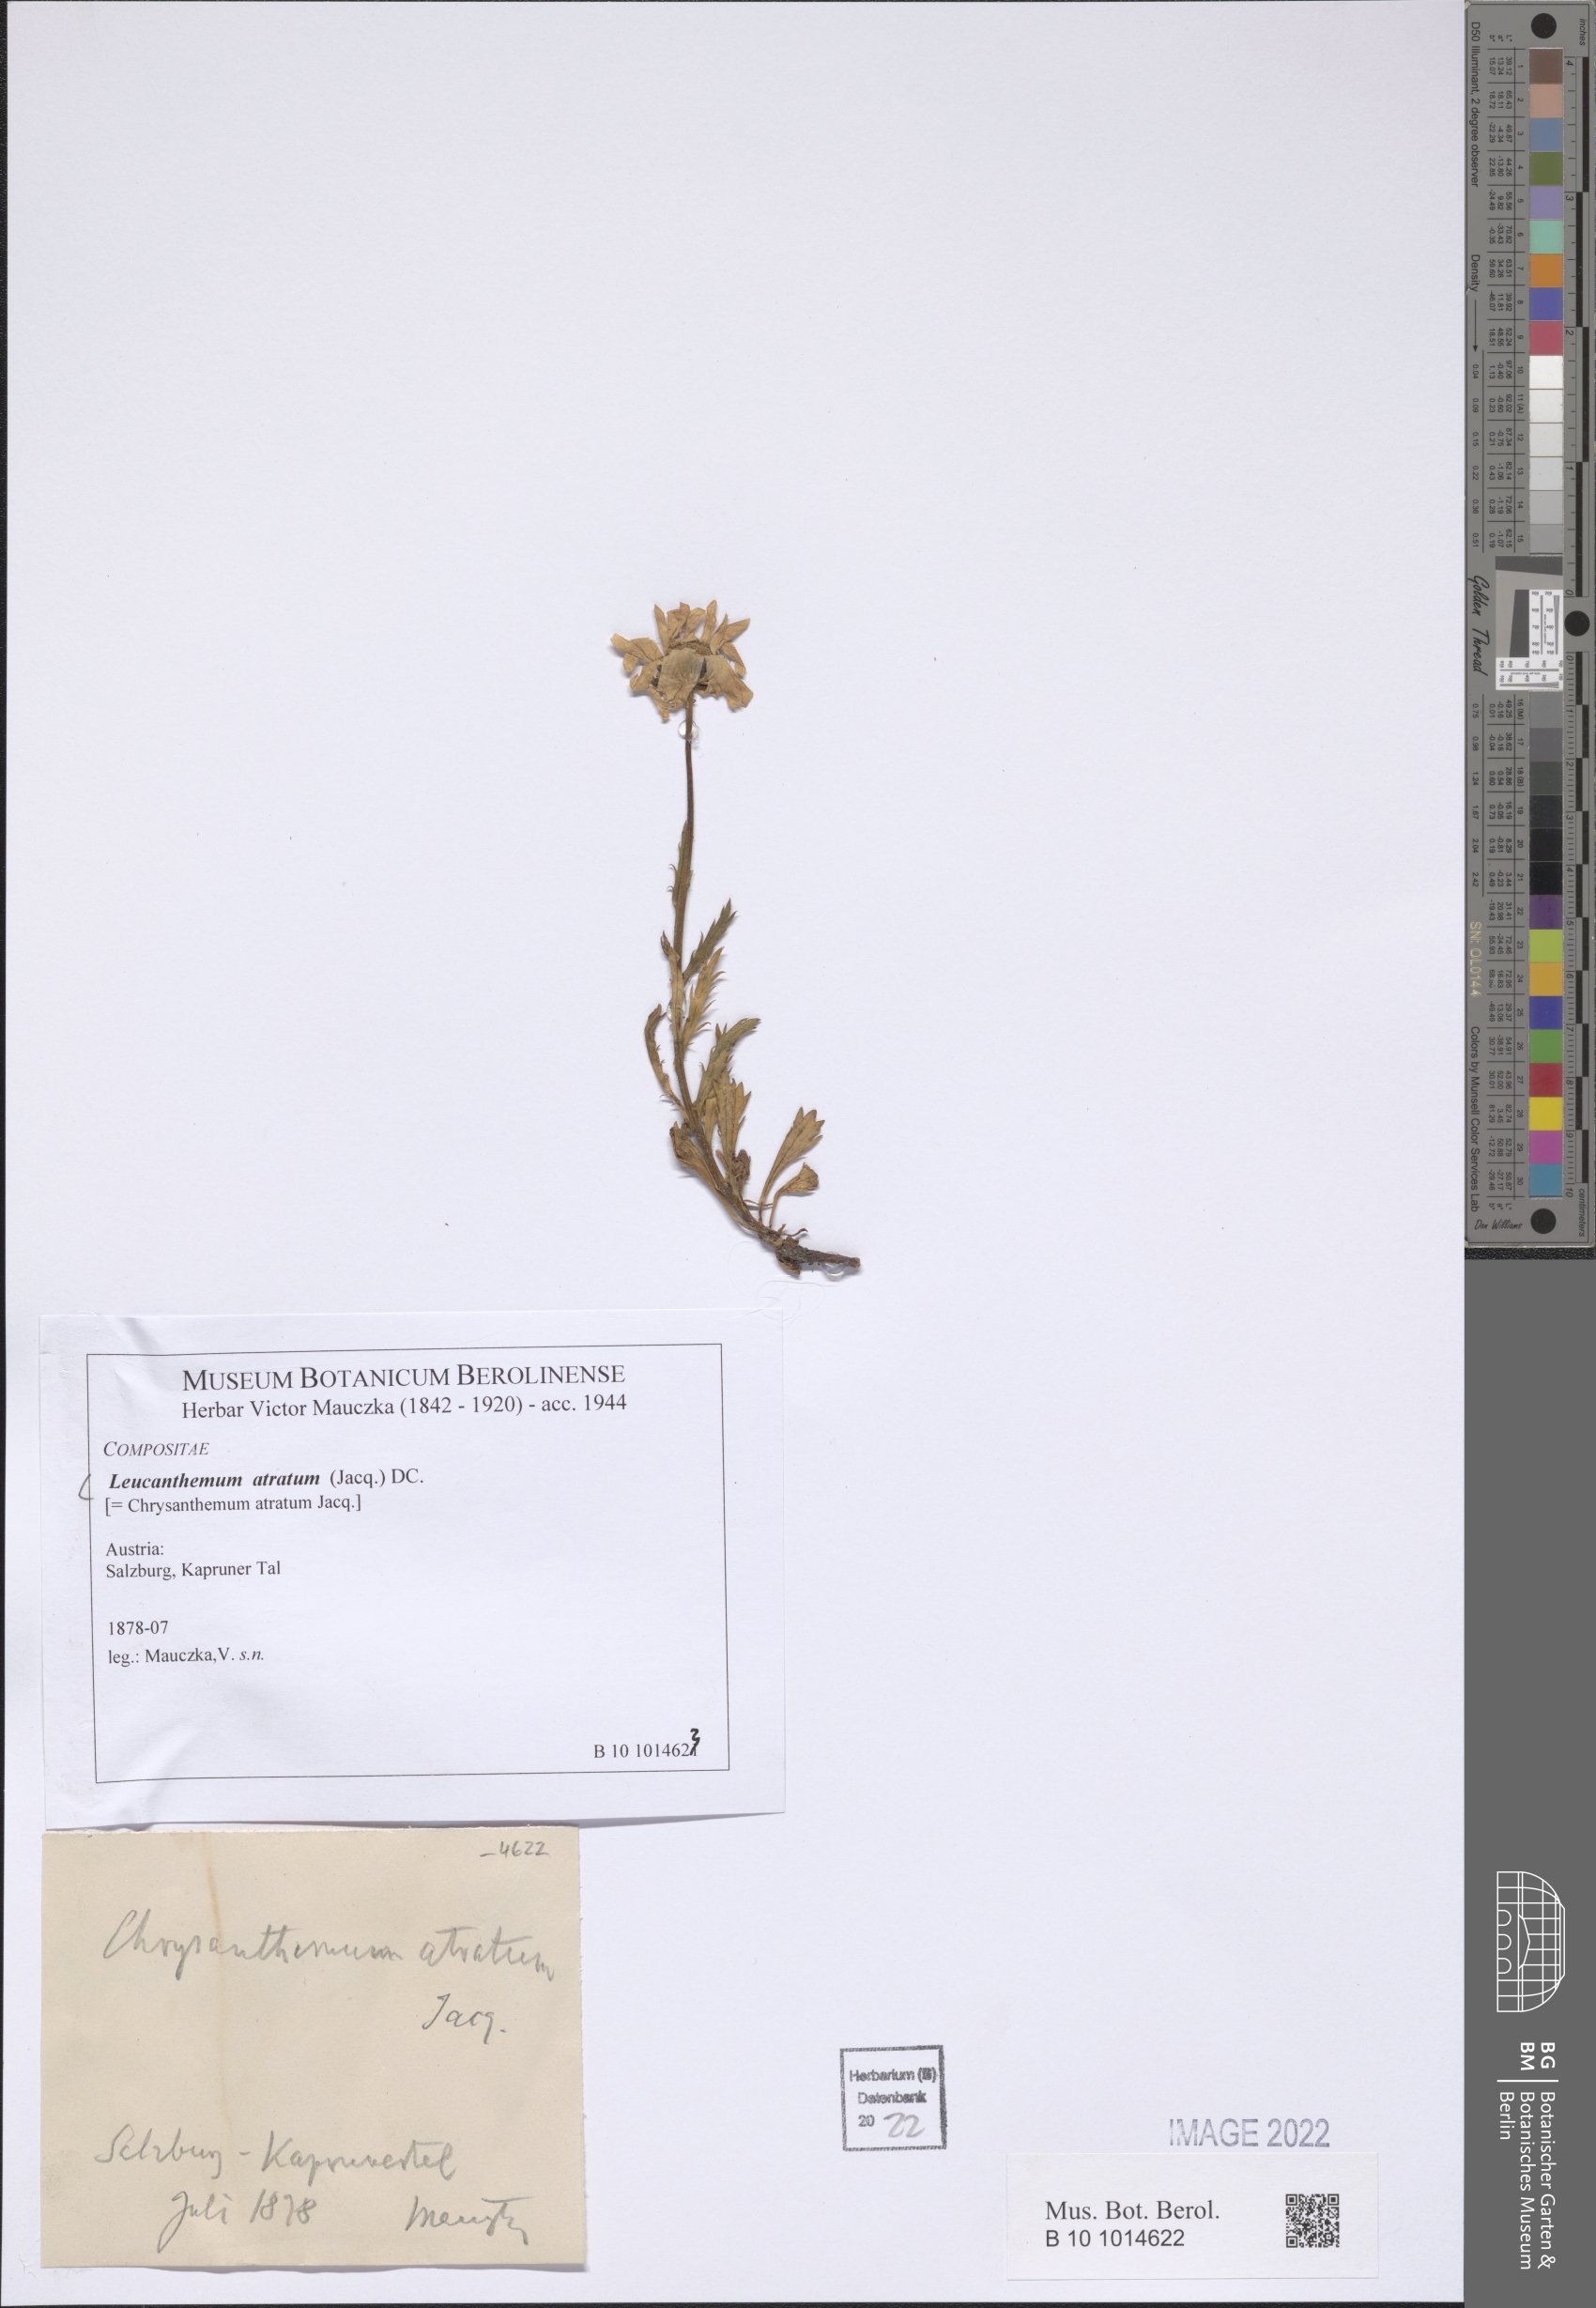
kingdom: Plantae
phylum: Tracheophyta
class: Magnoliopsida
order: Asterales
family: Asteraceae
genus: Leucanthemum
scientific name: Leucanthemum halleri
